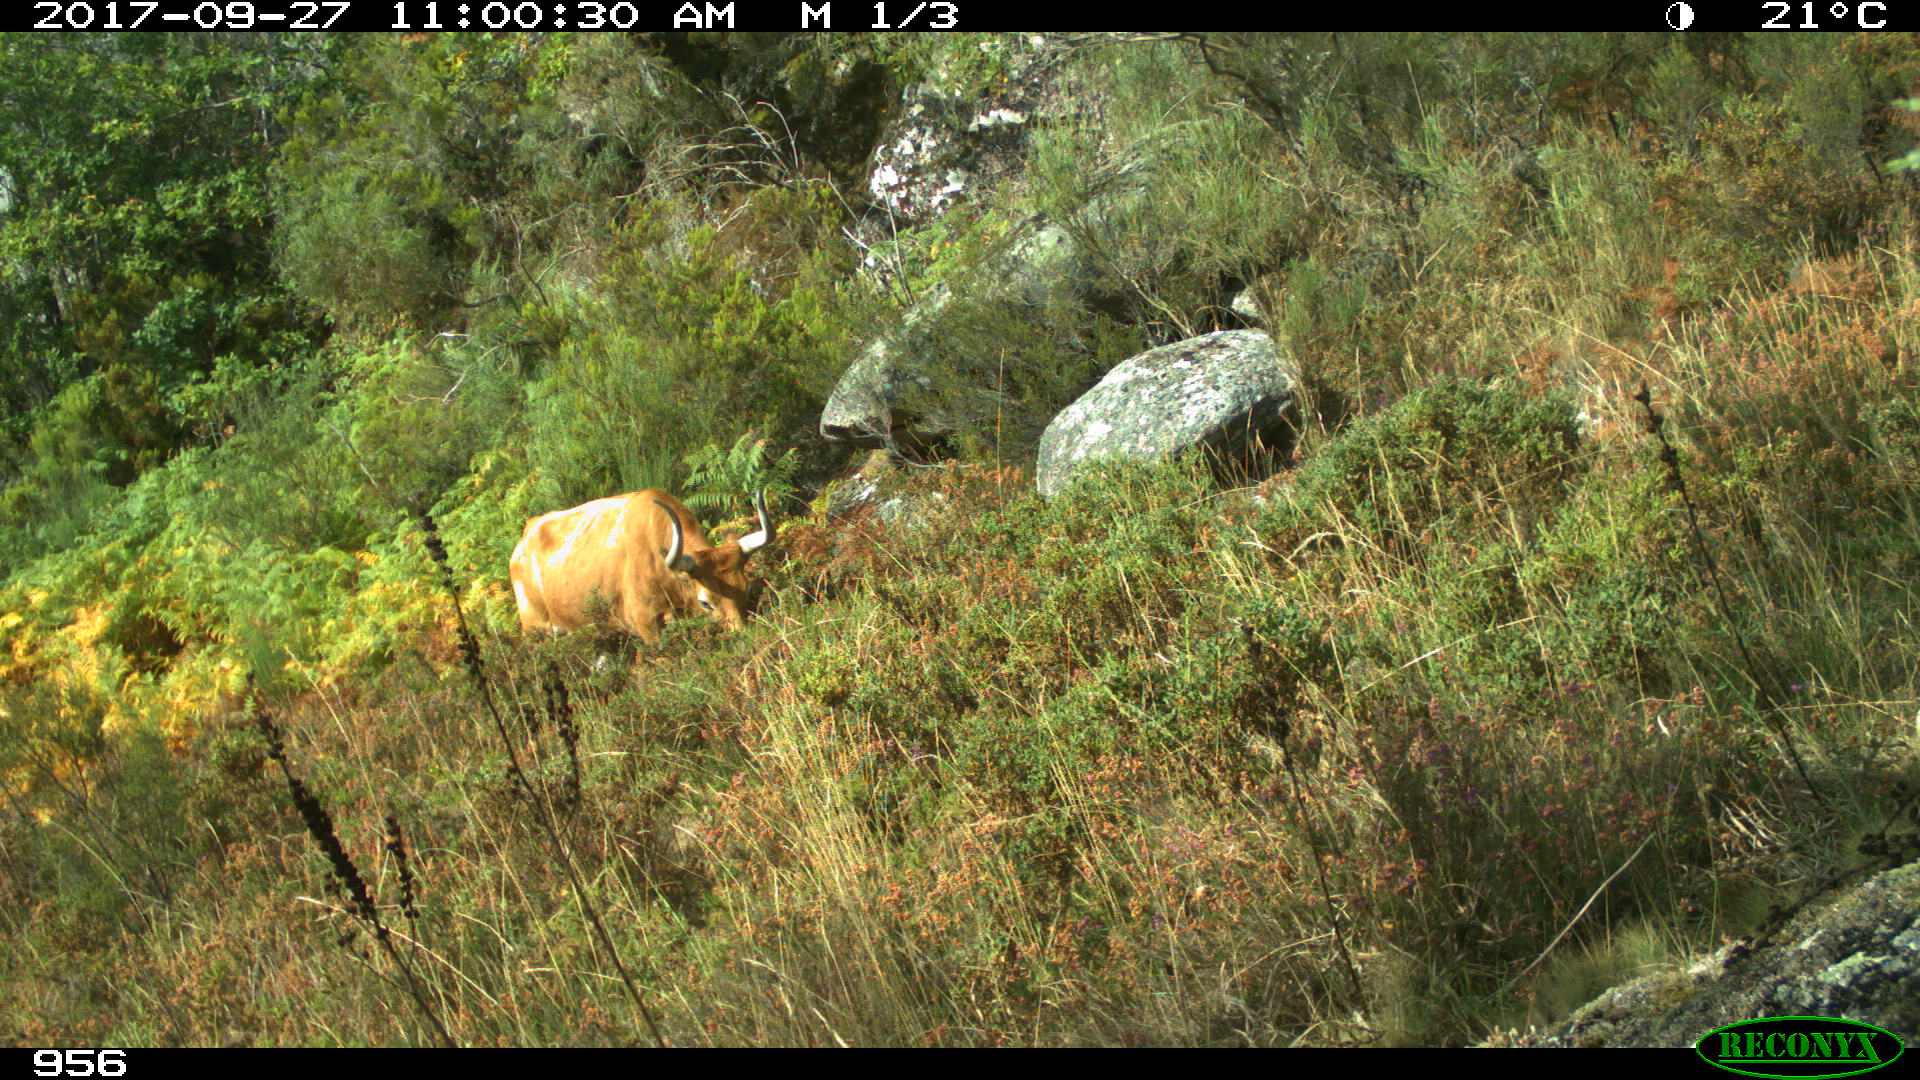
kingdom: Animalia
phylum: Chordata
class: Mammalia
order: Artiodactyla
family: Bovidae
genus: Bos
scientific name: Bos taurus
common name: Domesticated cattle
